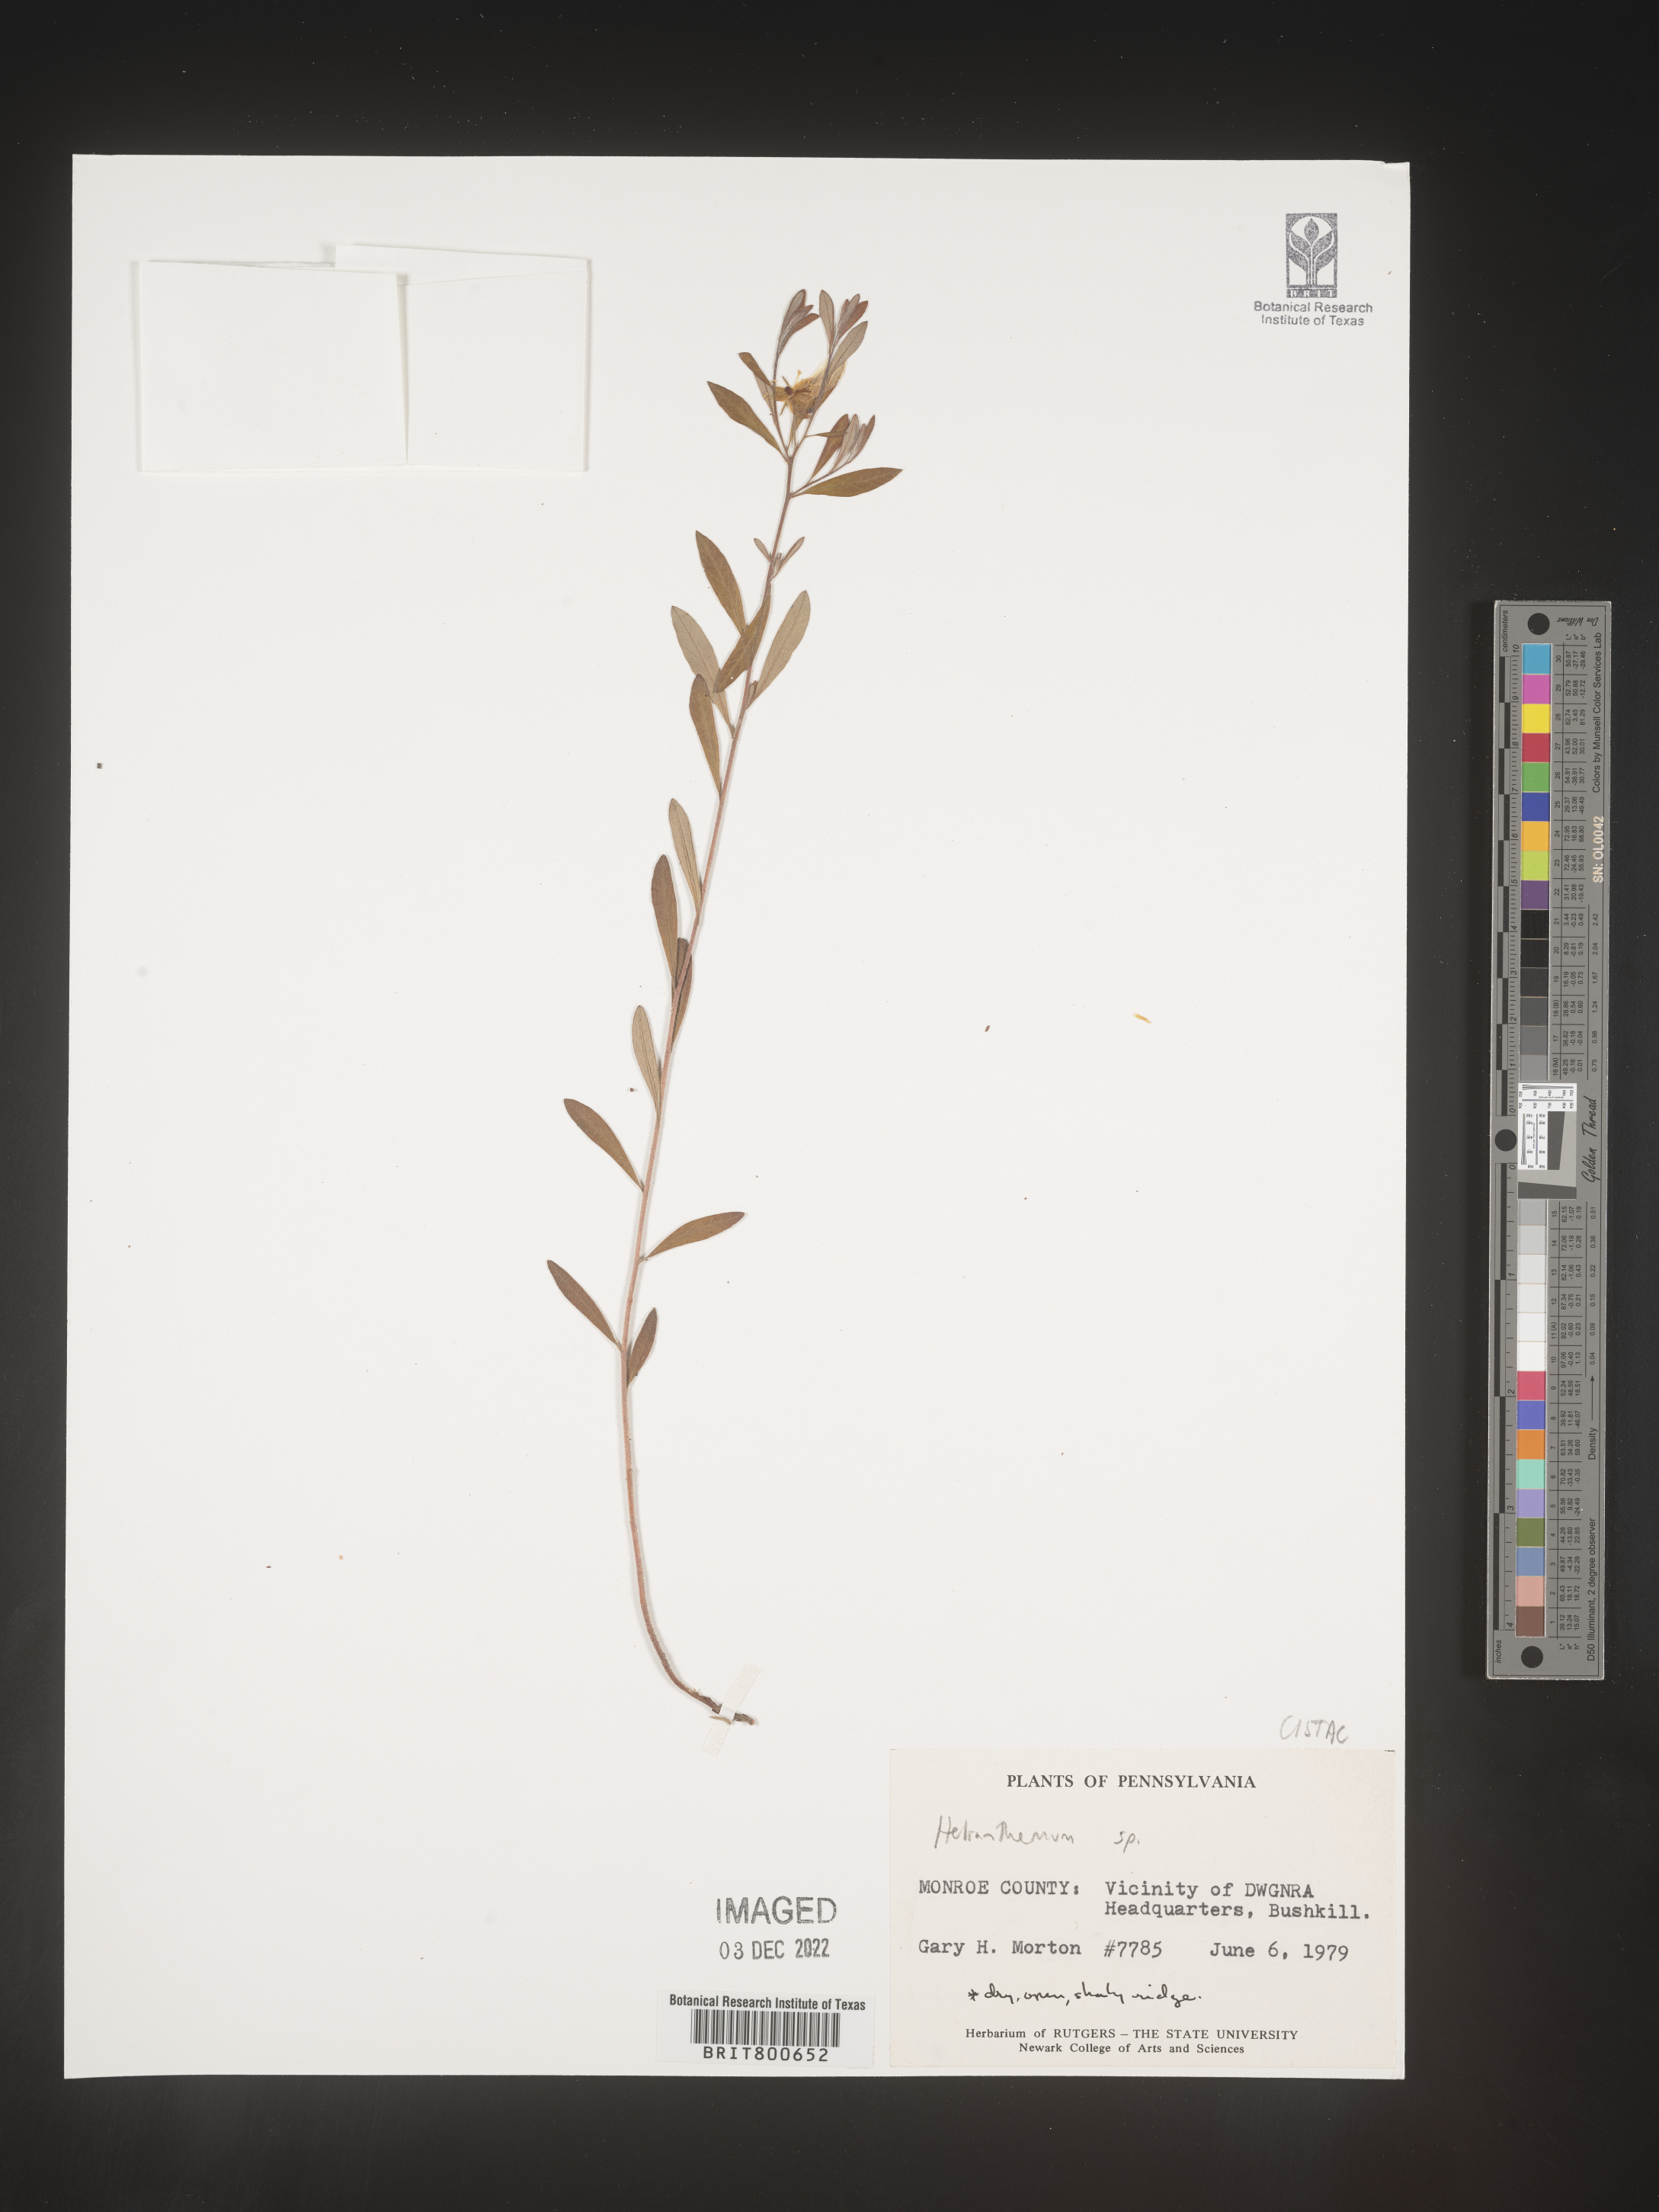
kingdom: Plantae
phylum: Tracheophyta
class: Magnoliopsida
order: Malvales
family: Cistaceae
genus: Helianthemum
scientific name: Helianthemum
